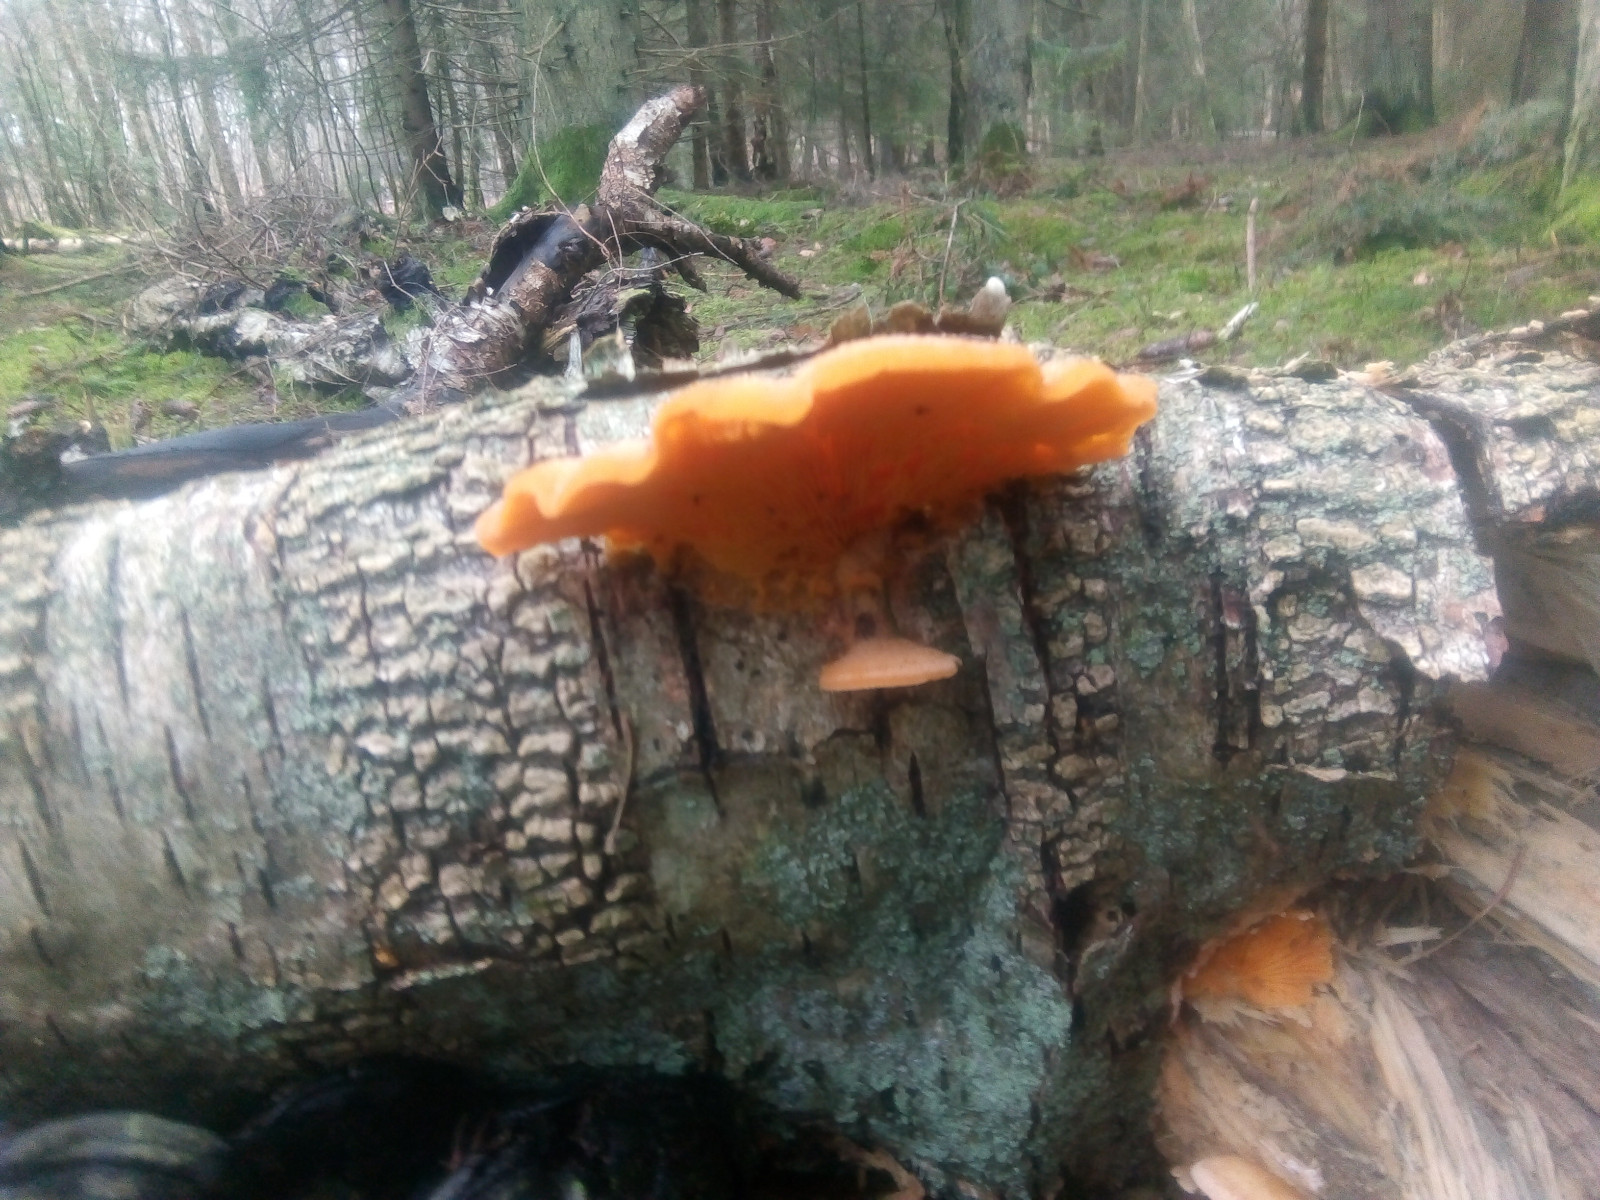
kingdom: Fungi
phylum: Basidiomycota
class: Agaricomycetes
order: Agaricales
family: Phyllotopsidaceae
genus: Phyllotopsis
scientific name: Phyllotopsis nidulans
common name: okkerblad
